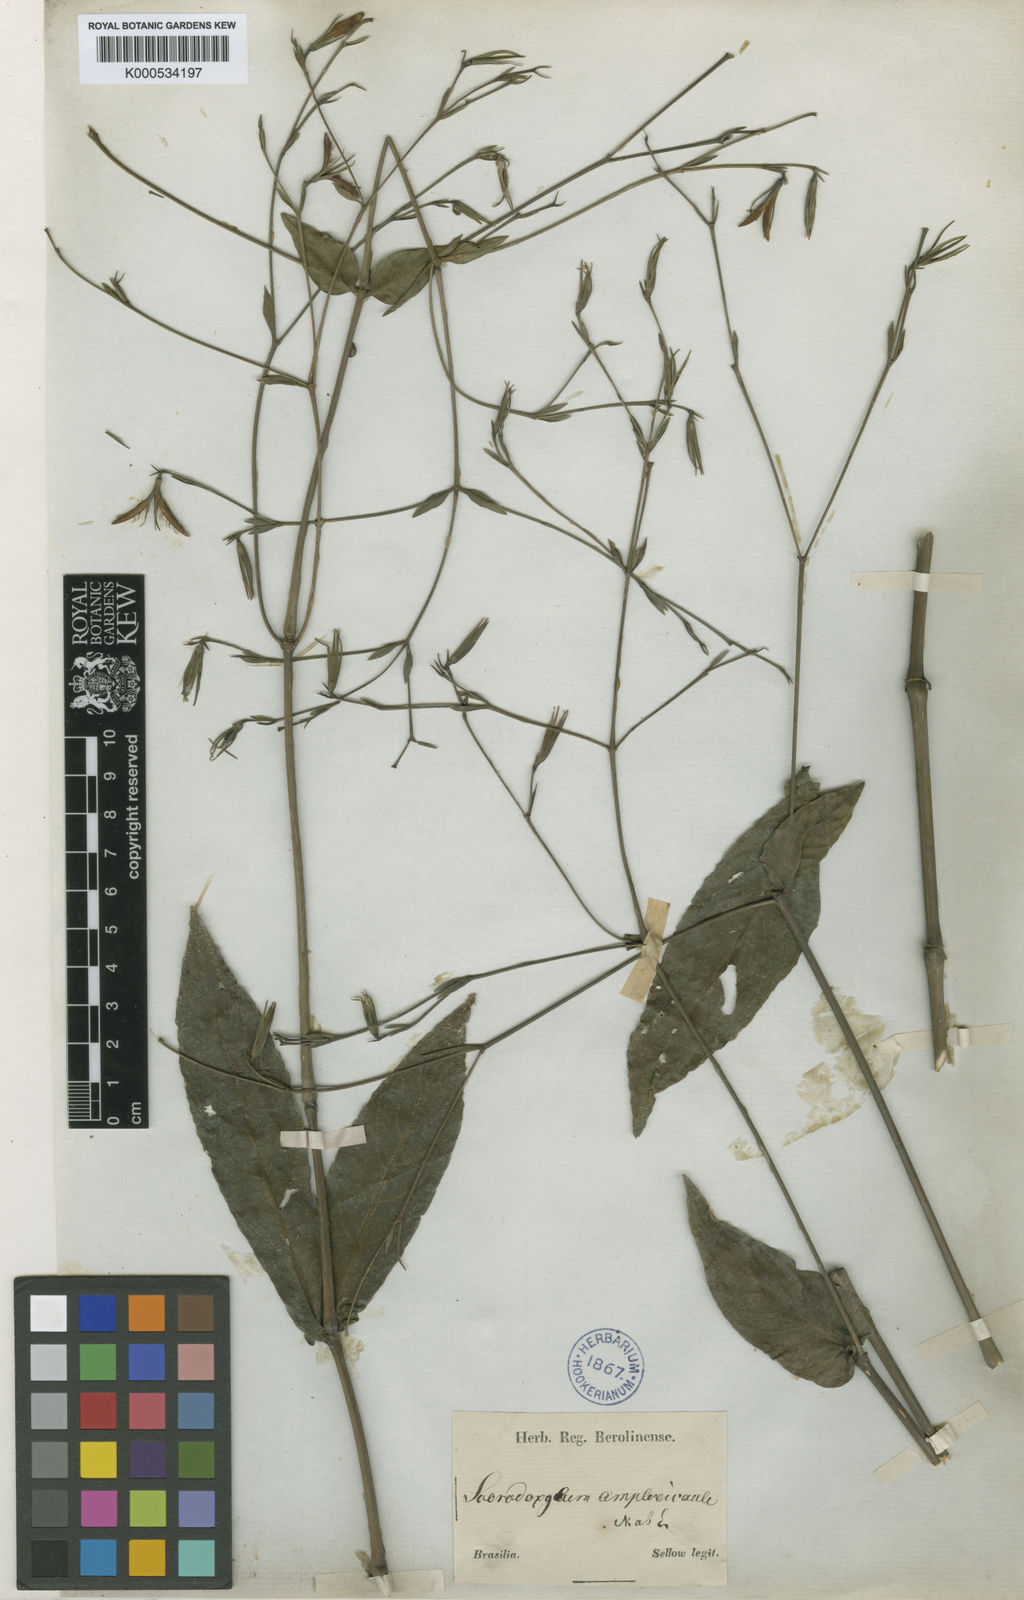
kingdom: Plantae
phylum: Tracheophyta
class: Magnoliopsida
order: Lamiales
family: Acanthaceae
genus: Ruellia
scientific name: Ruellia amplexicaulis
